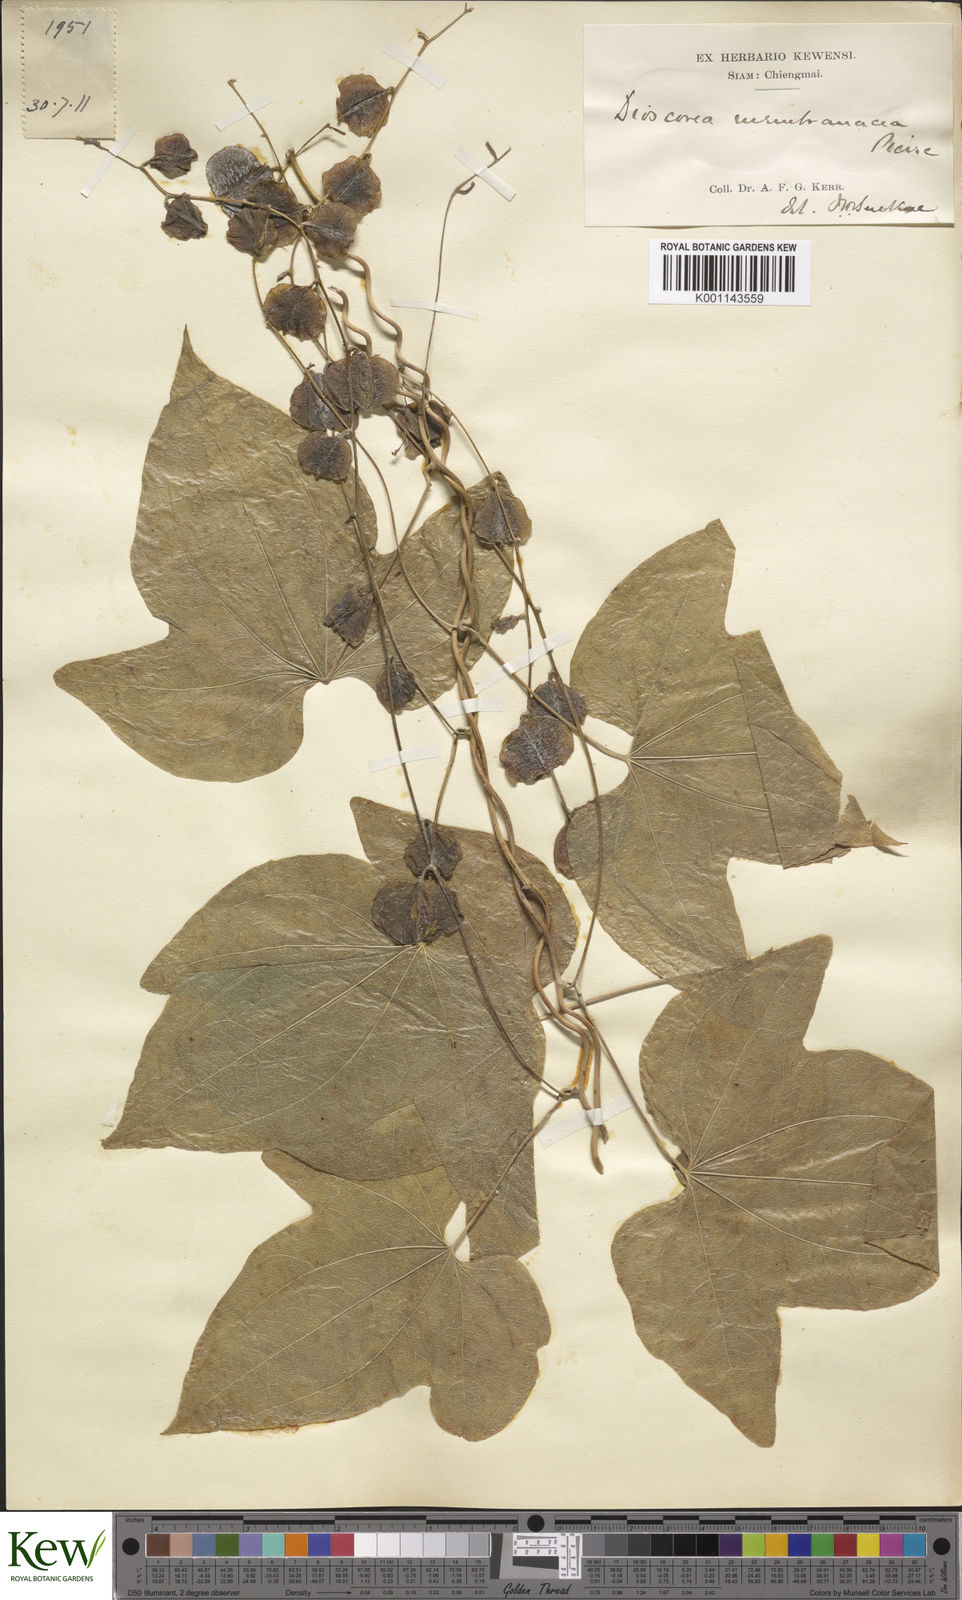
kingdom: Plantae
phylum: Tracheophyta
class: Liliopsida
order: Dioscoreales
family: Dioscoreaceae
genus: Dioscorea
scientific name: Dioscorea membranacea
